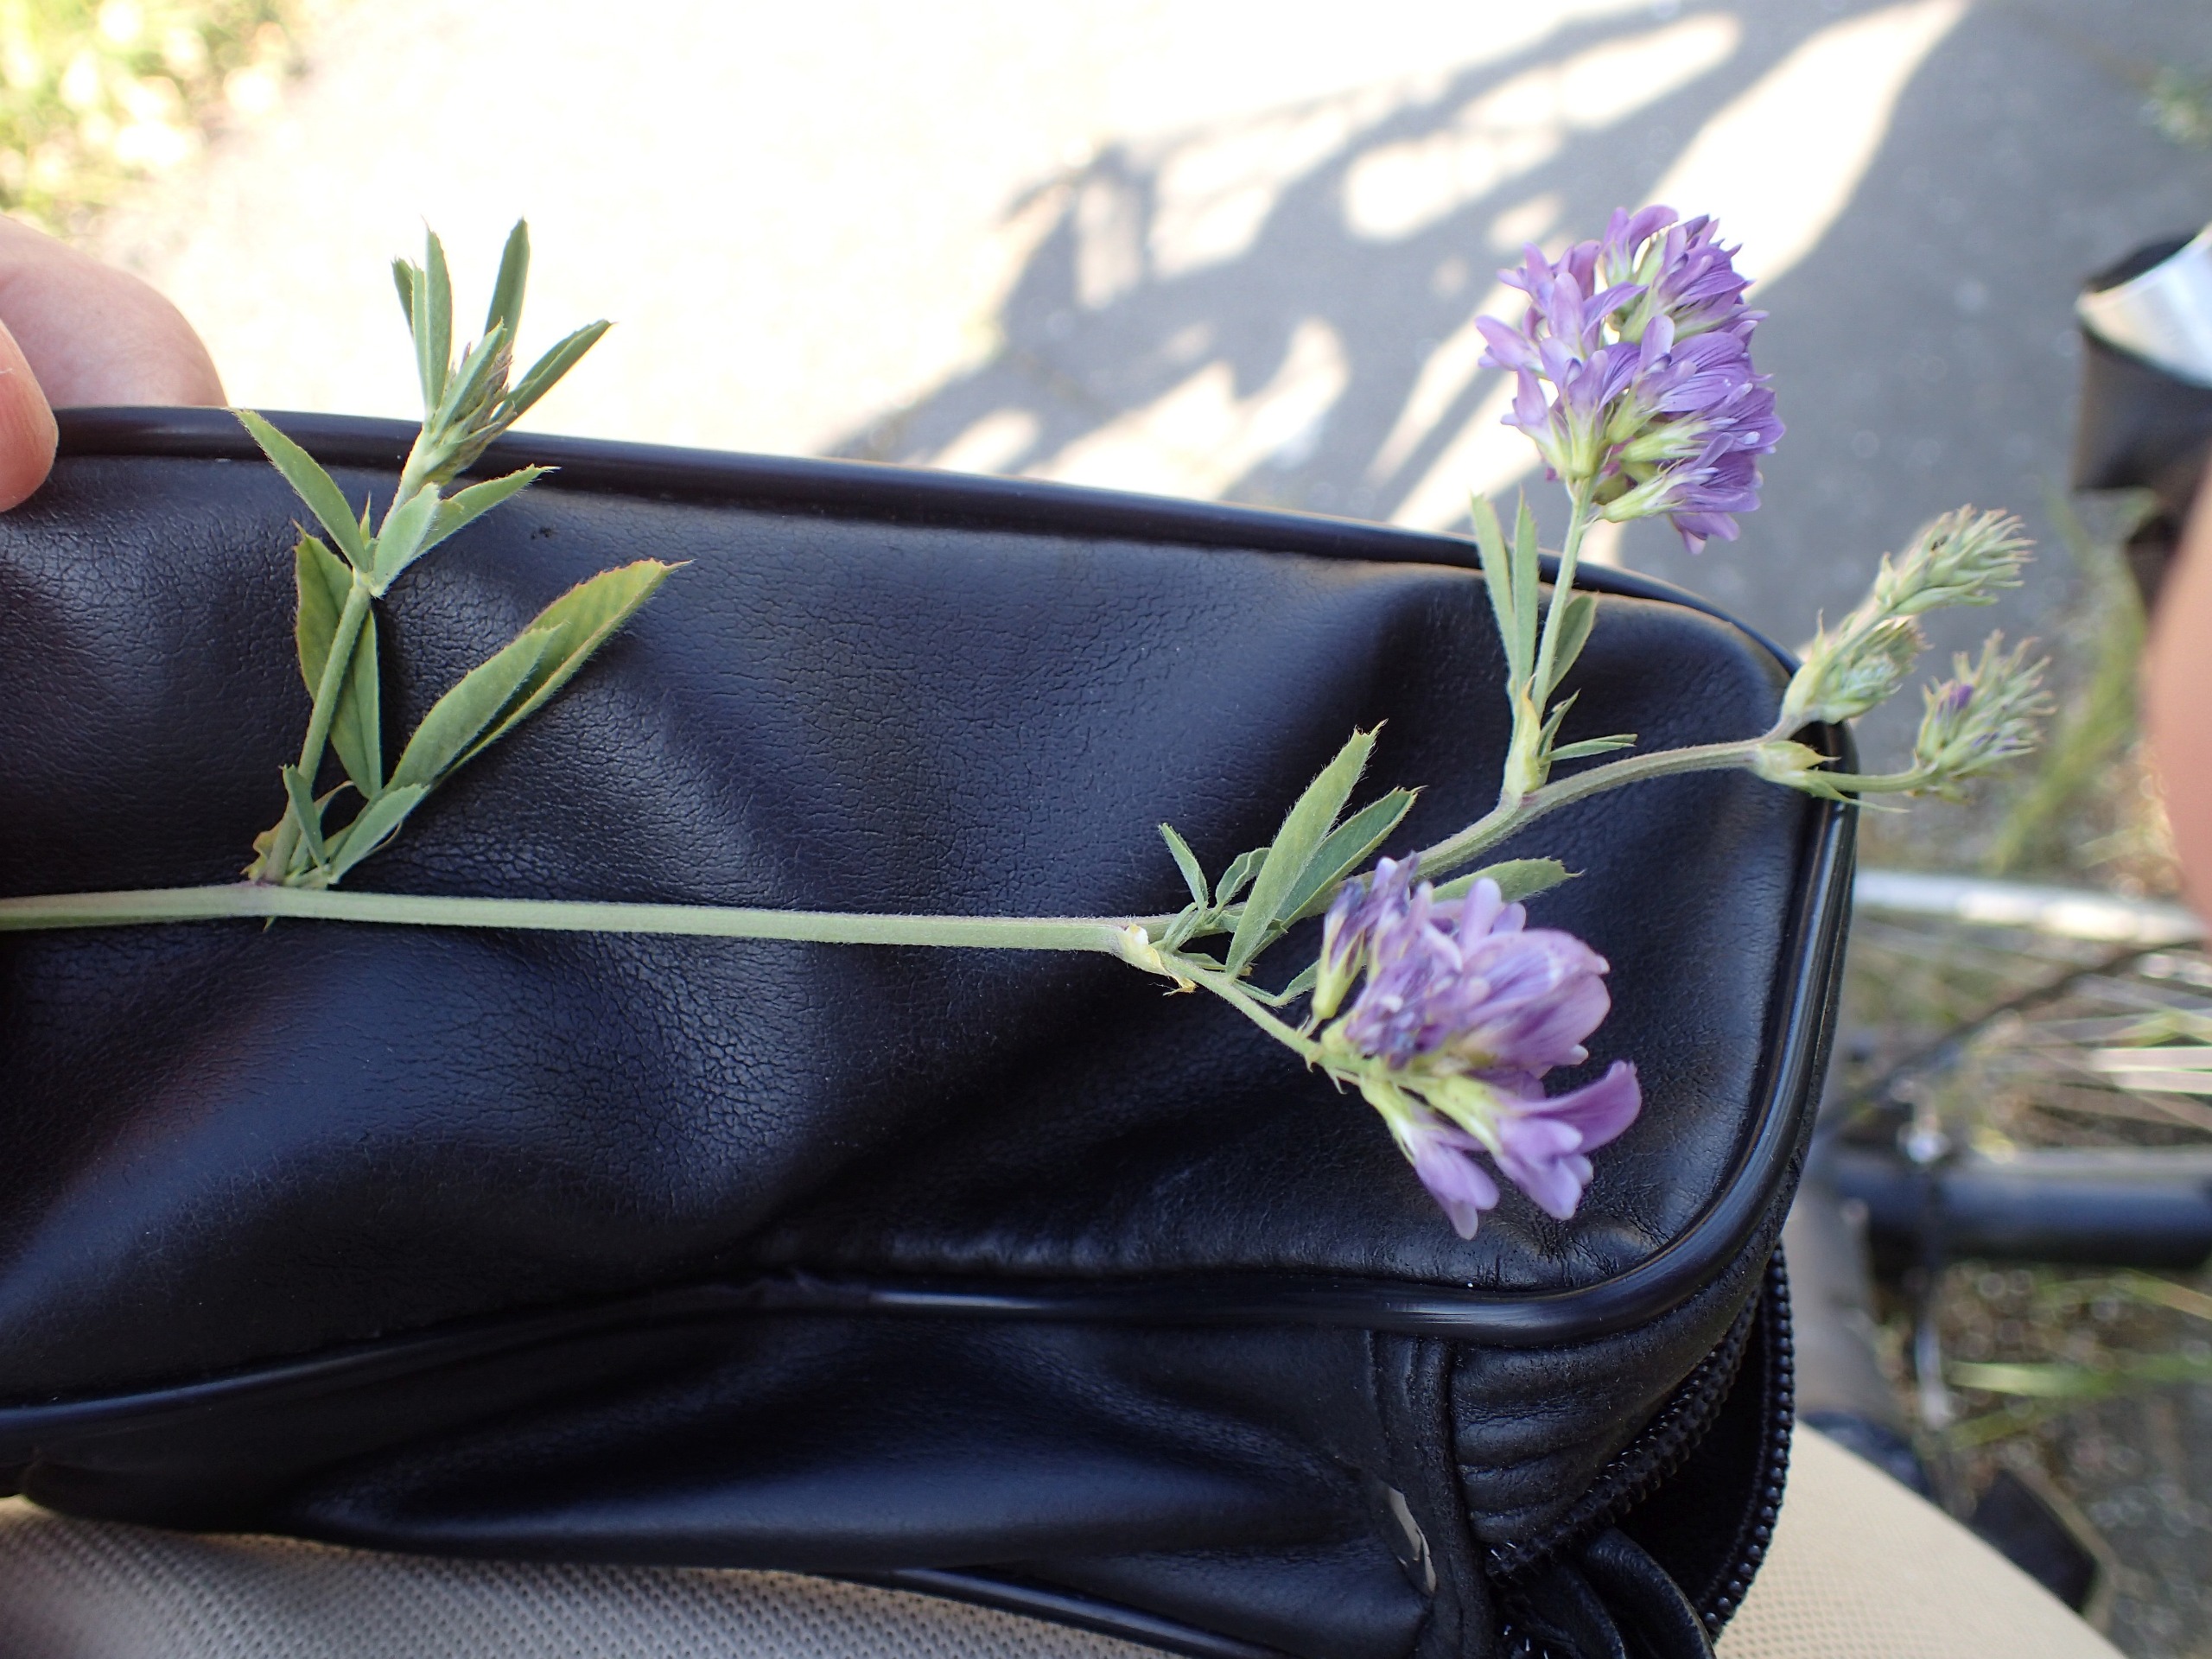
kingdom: Plantae
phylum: Tracheophyta
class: Magnoliopsida
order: Fabales
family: Fabaceae
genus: Medicago
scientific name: Medicago sativa
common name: Lucerne
